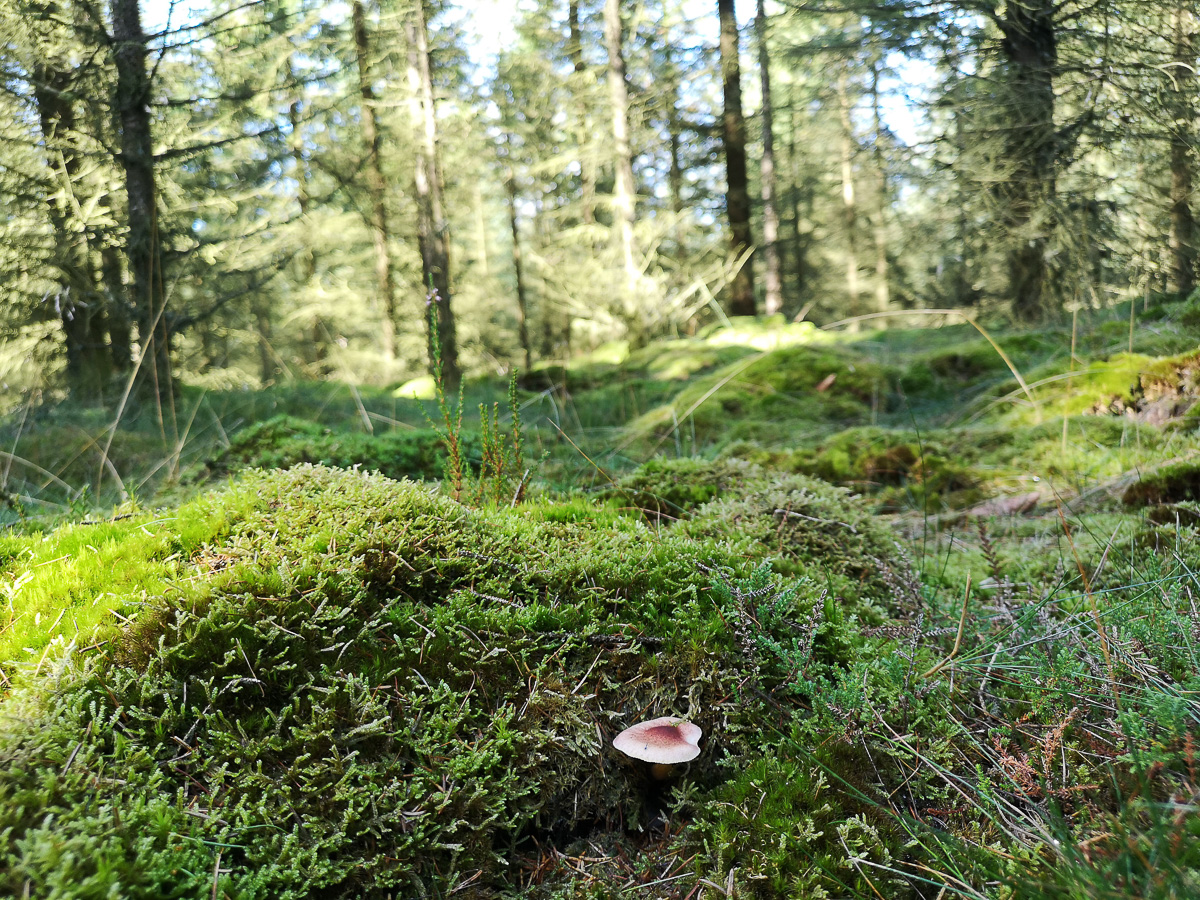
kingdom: Fungi
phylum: Basidiomycota
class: Agaricomycetes
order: Agaricales
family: Tricholomataceae
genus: Tricholomopsis
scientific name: Tricholomopsis rutilans
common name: purpur-væbnerhat
